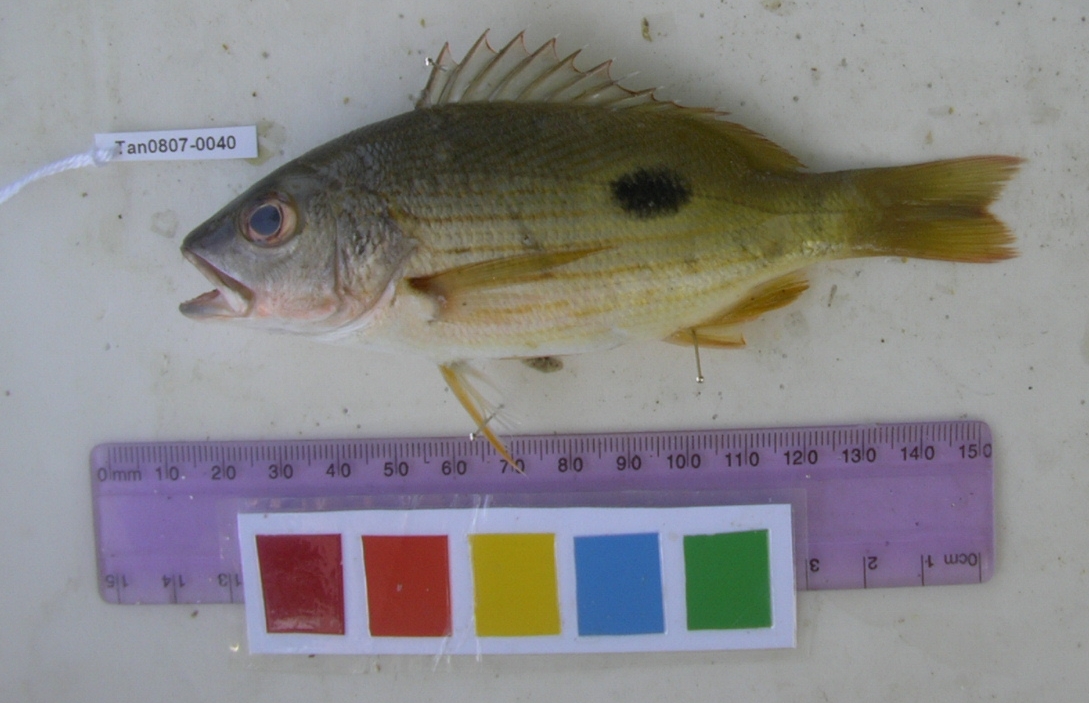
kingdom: Animalia
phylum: Chordata
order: Perciformes
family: Lutjanidae
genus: Lutjanus
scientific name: Lutjanus fulviflamma
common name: Blackspot snapper
